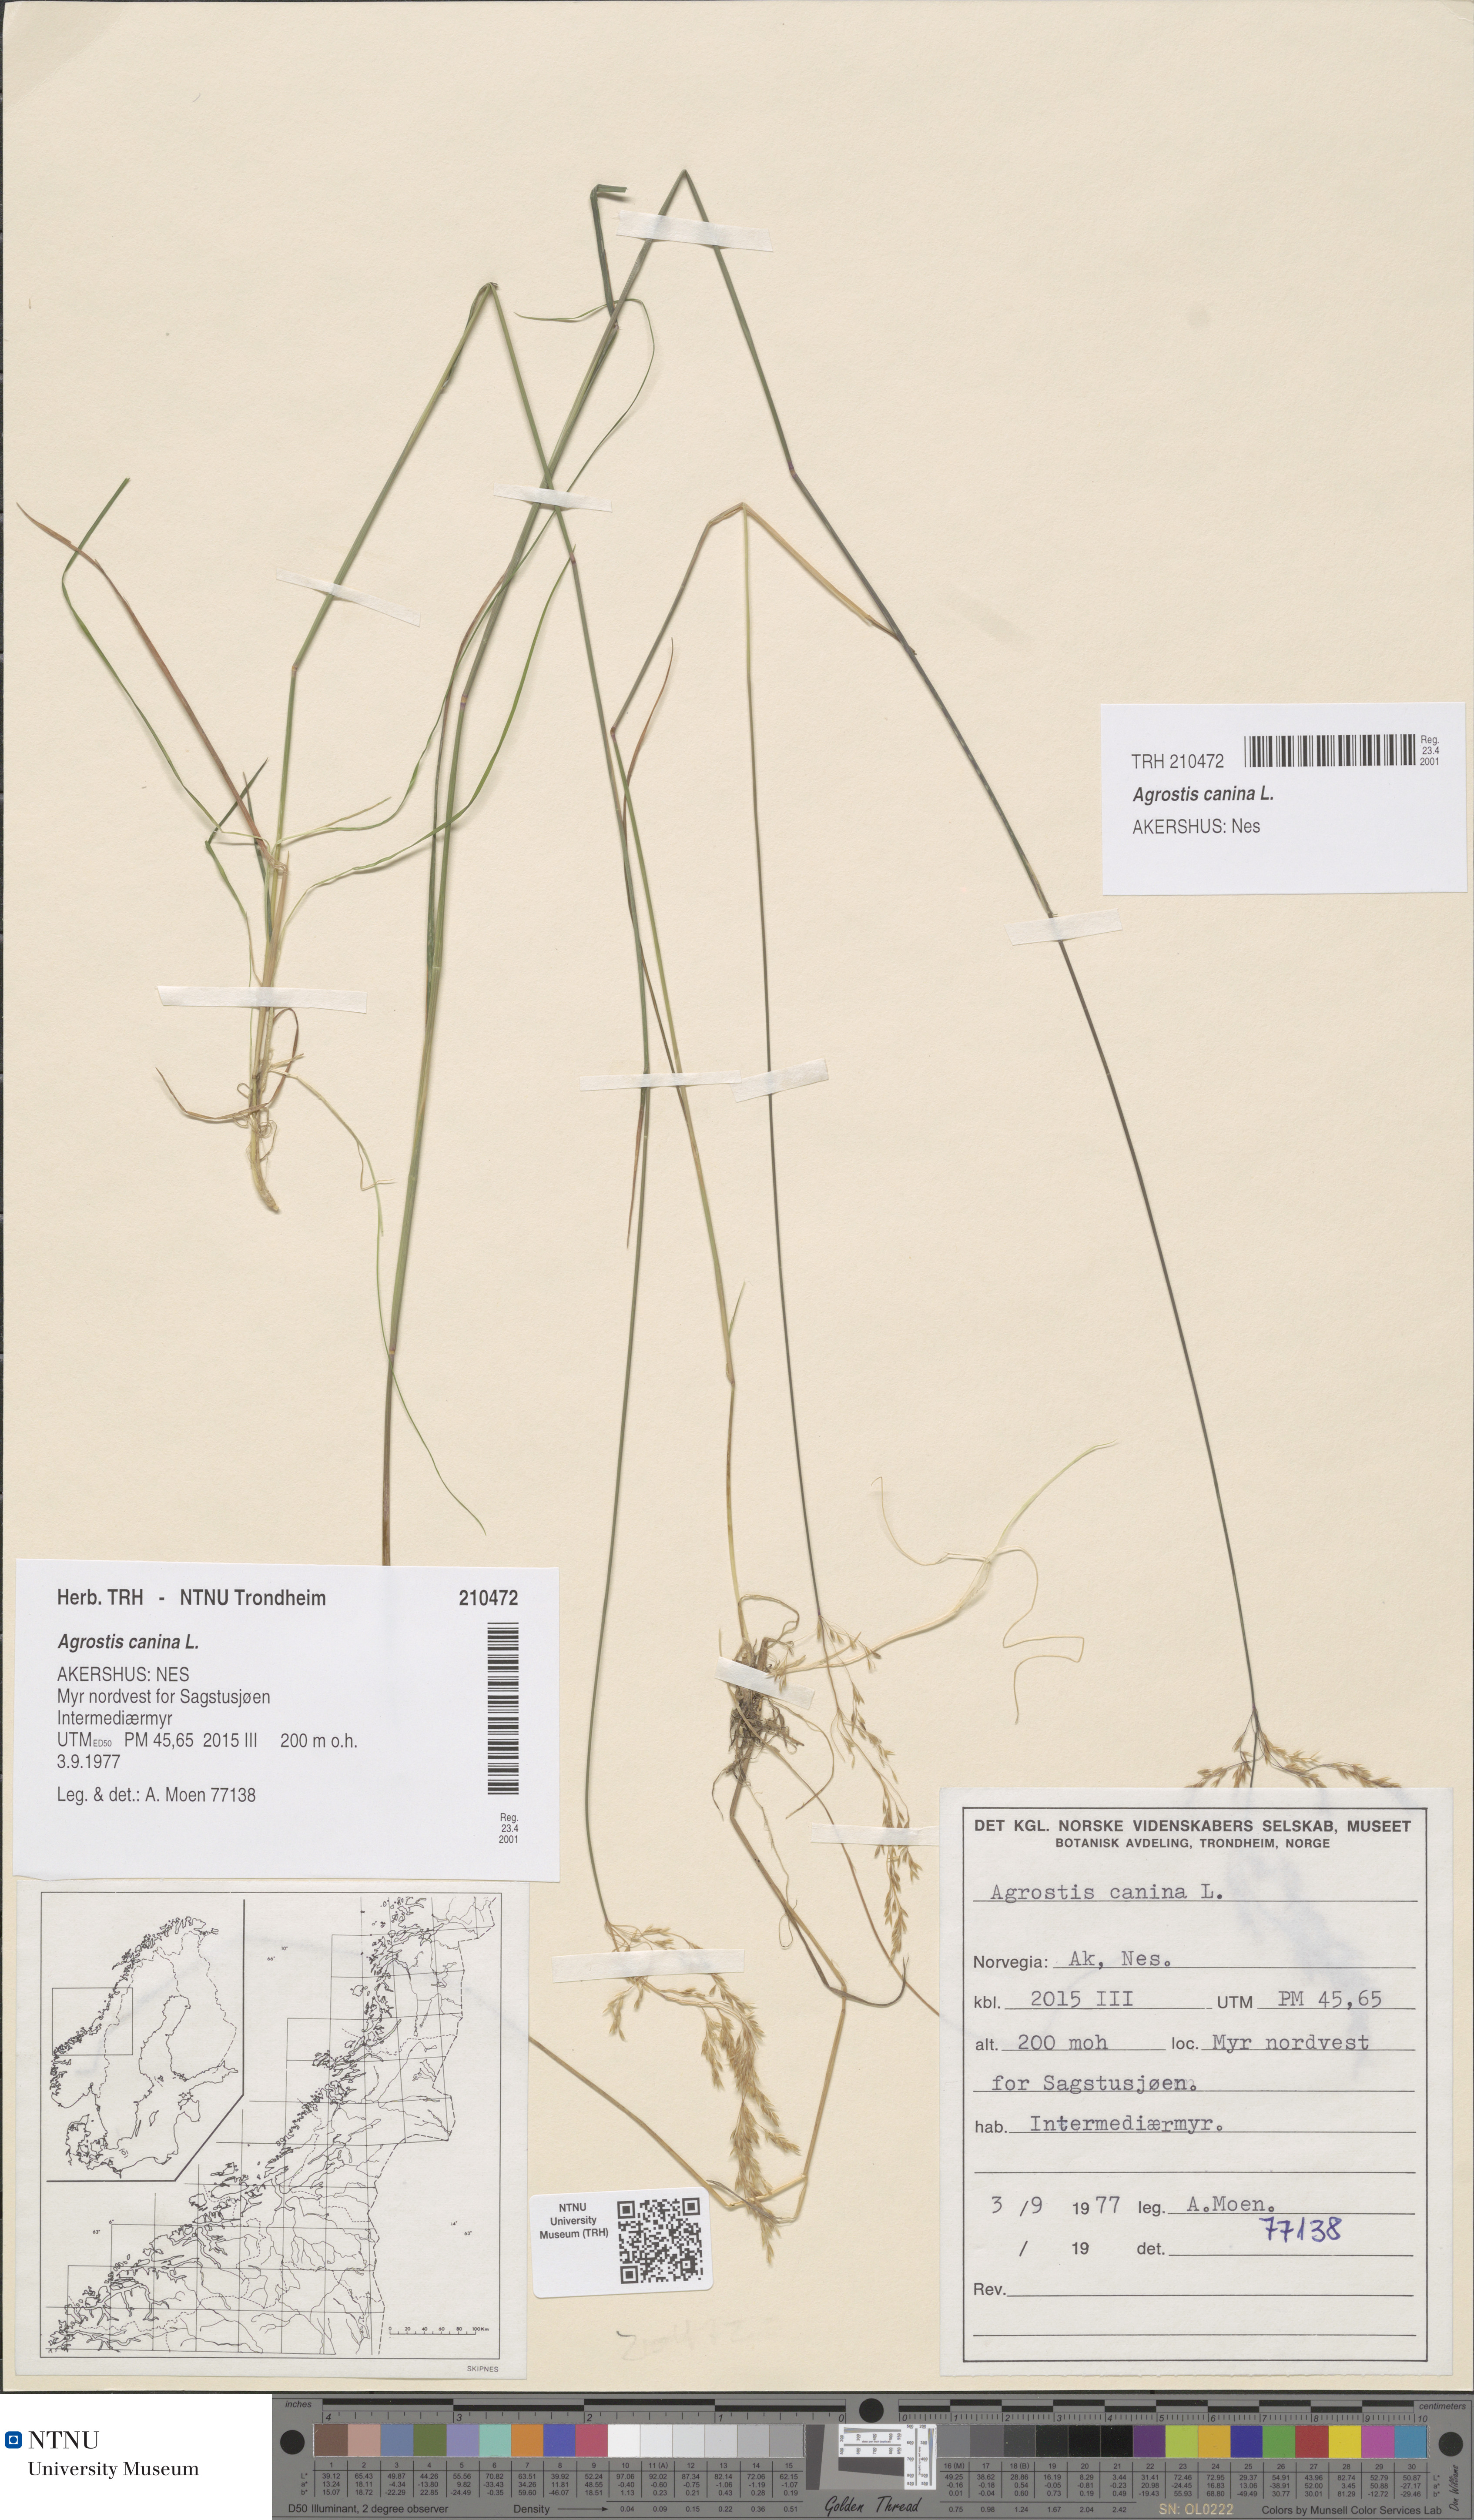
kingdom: Plantae
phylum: Tracheophyta
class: Liliopsida
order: Poales
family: Poaceae
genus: Agrostis
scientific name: Agrostis canina
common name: Velvet bent
